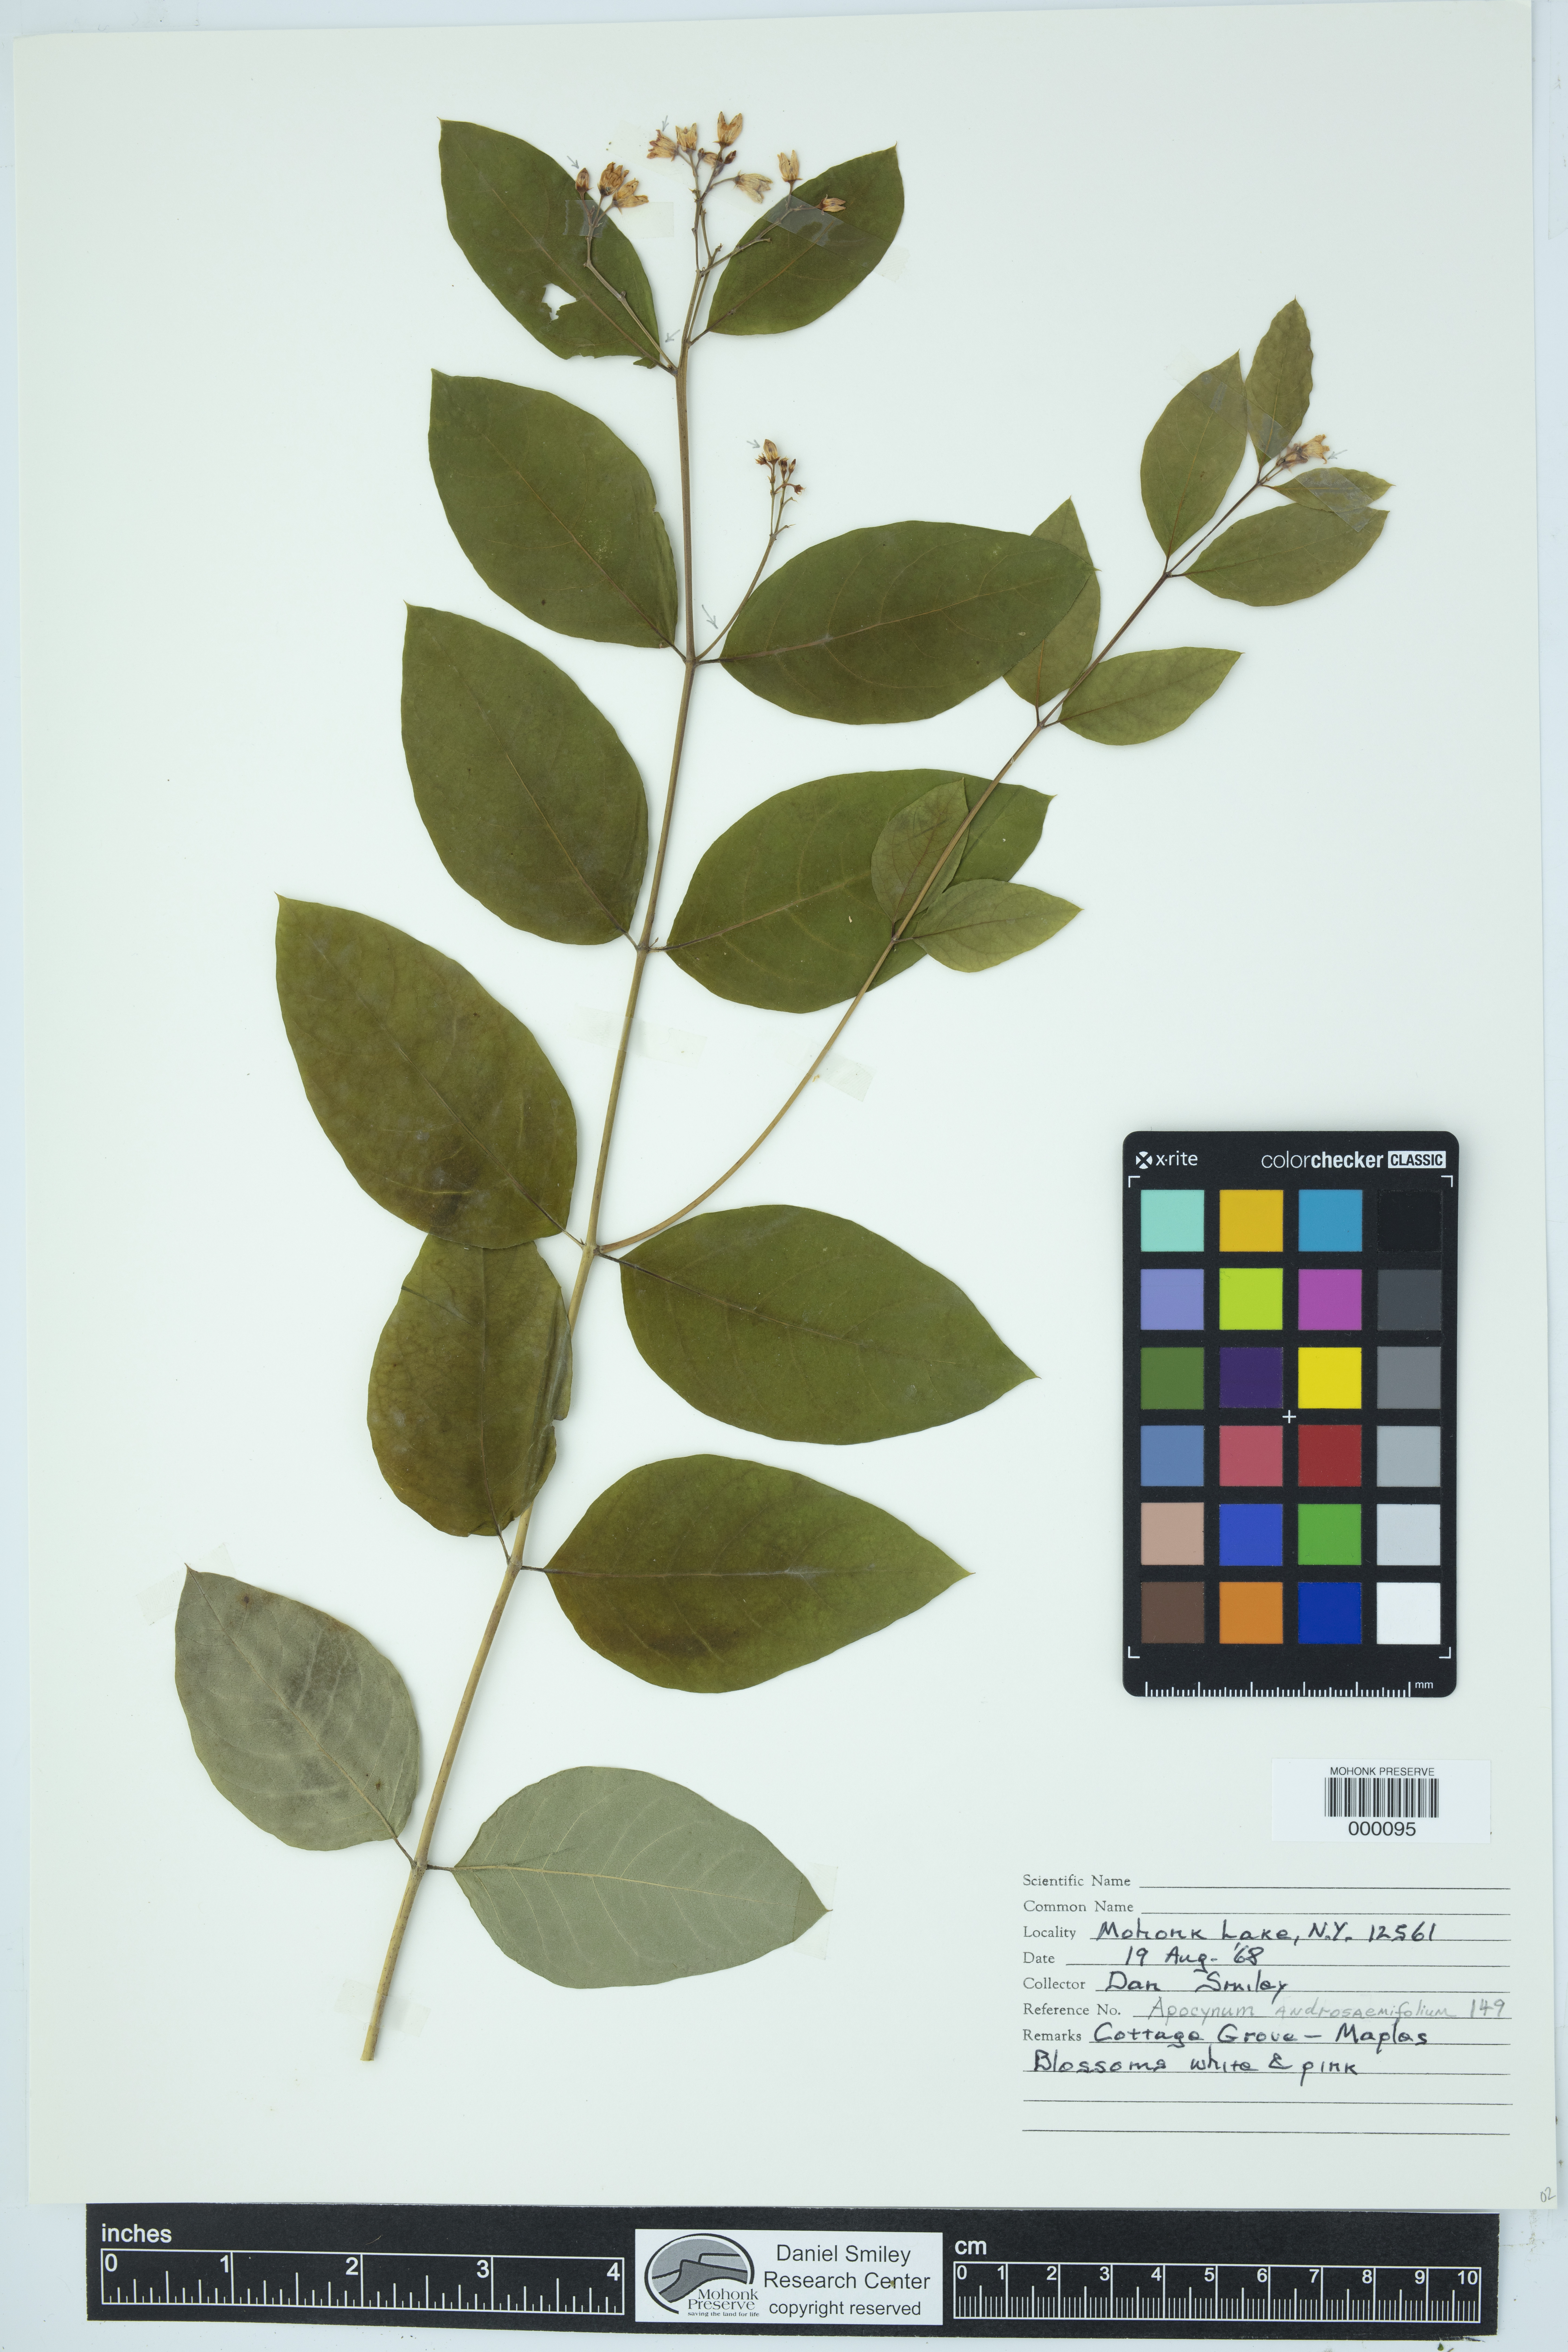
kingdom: Plantae
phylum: Tracheophyta
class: Magnoliopsida
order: Gentianales
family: Apocynaceae
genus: Apocynum
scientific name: Apocynum androsaemifolium
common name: Spreading dogbane
